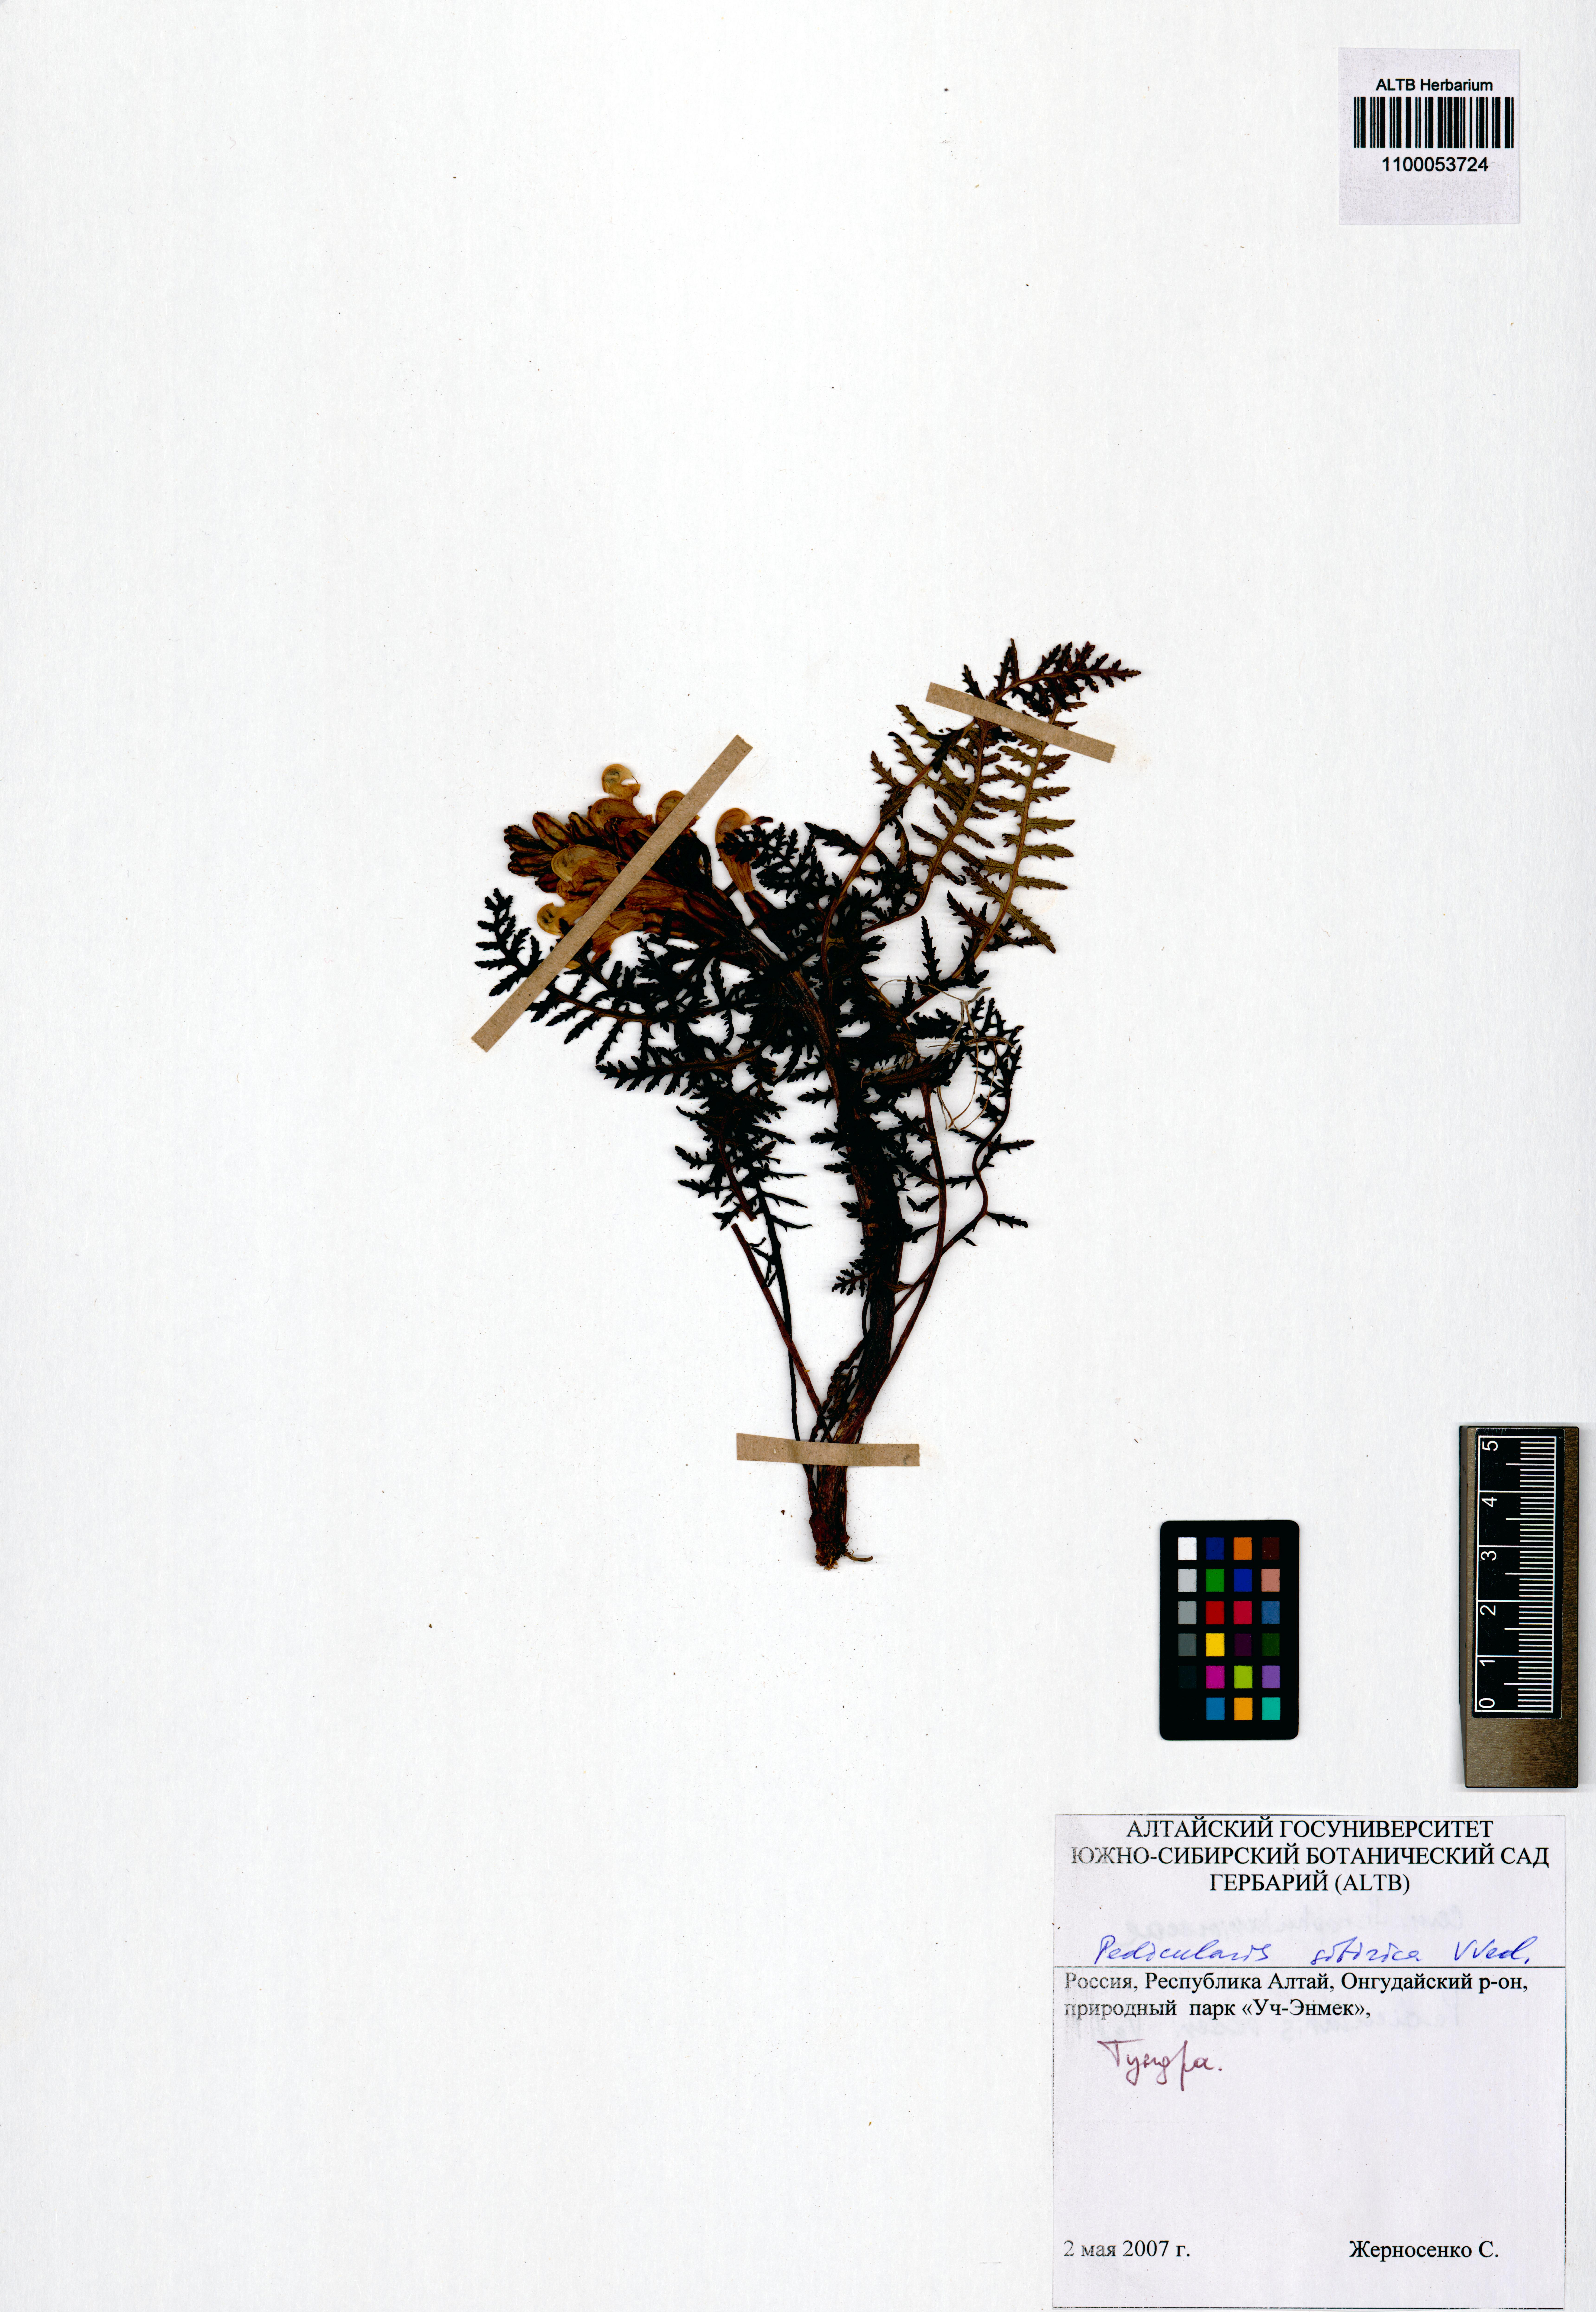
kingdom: Plantae
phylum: Tracheophyta
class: Magnoliopsida
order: Lamiales
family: Orobanchaceae
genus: Pedicularis
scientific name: Pedicularis sibirica
